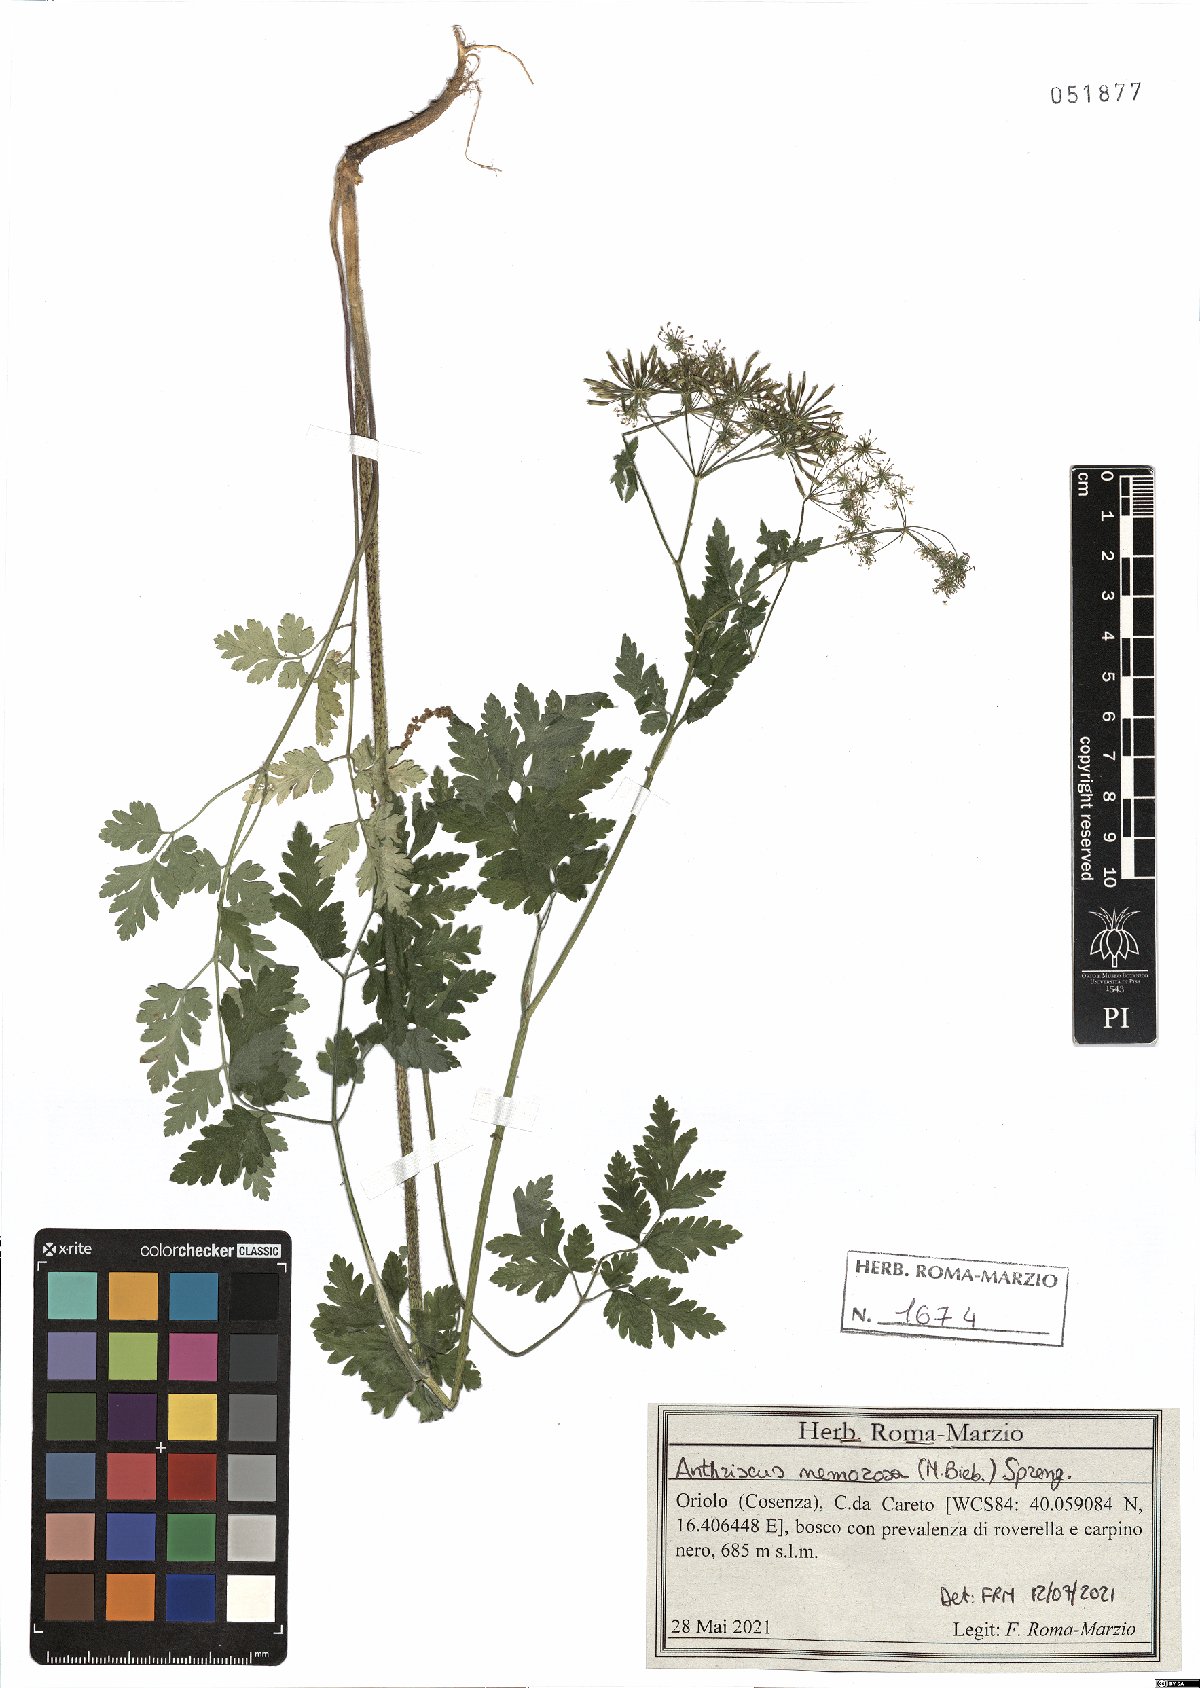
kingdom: Plantae
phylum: Tracheophyta
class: Magnoliopsida
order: Apiales
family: Apiaceae
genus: Anthriscus
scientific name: Anthriscus sylvestris
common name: Cow parsley
